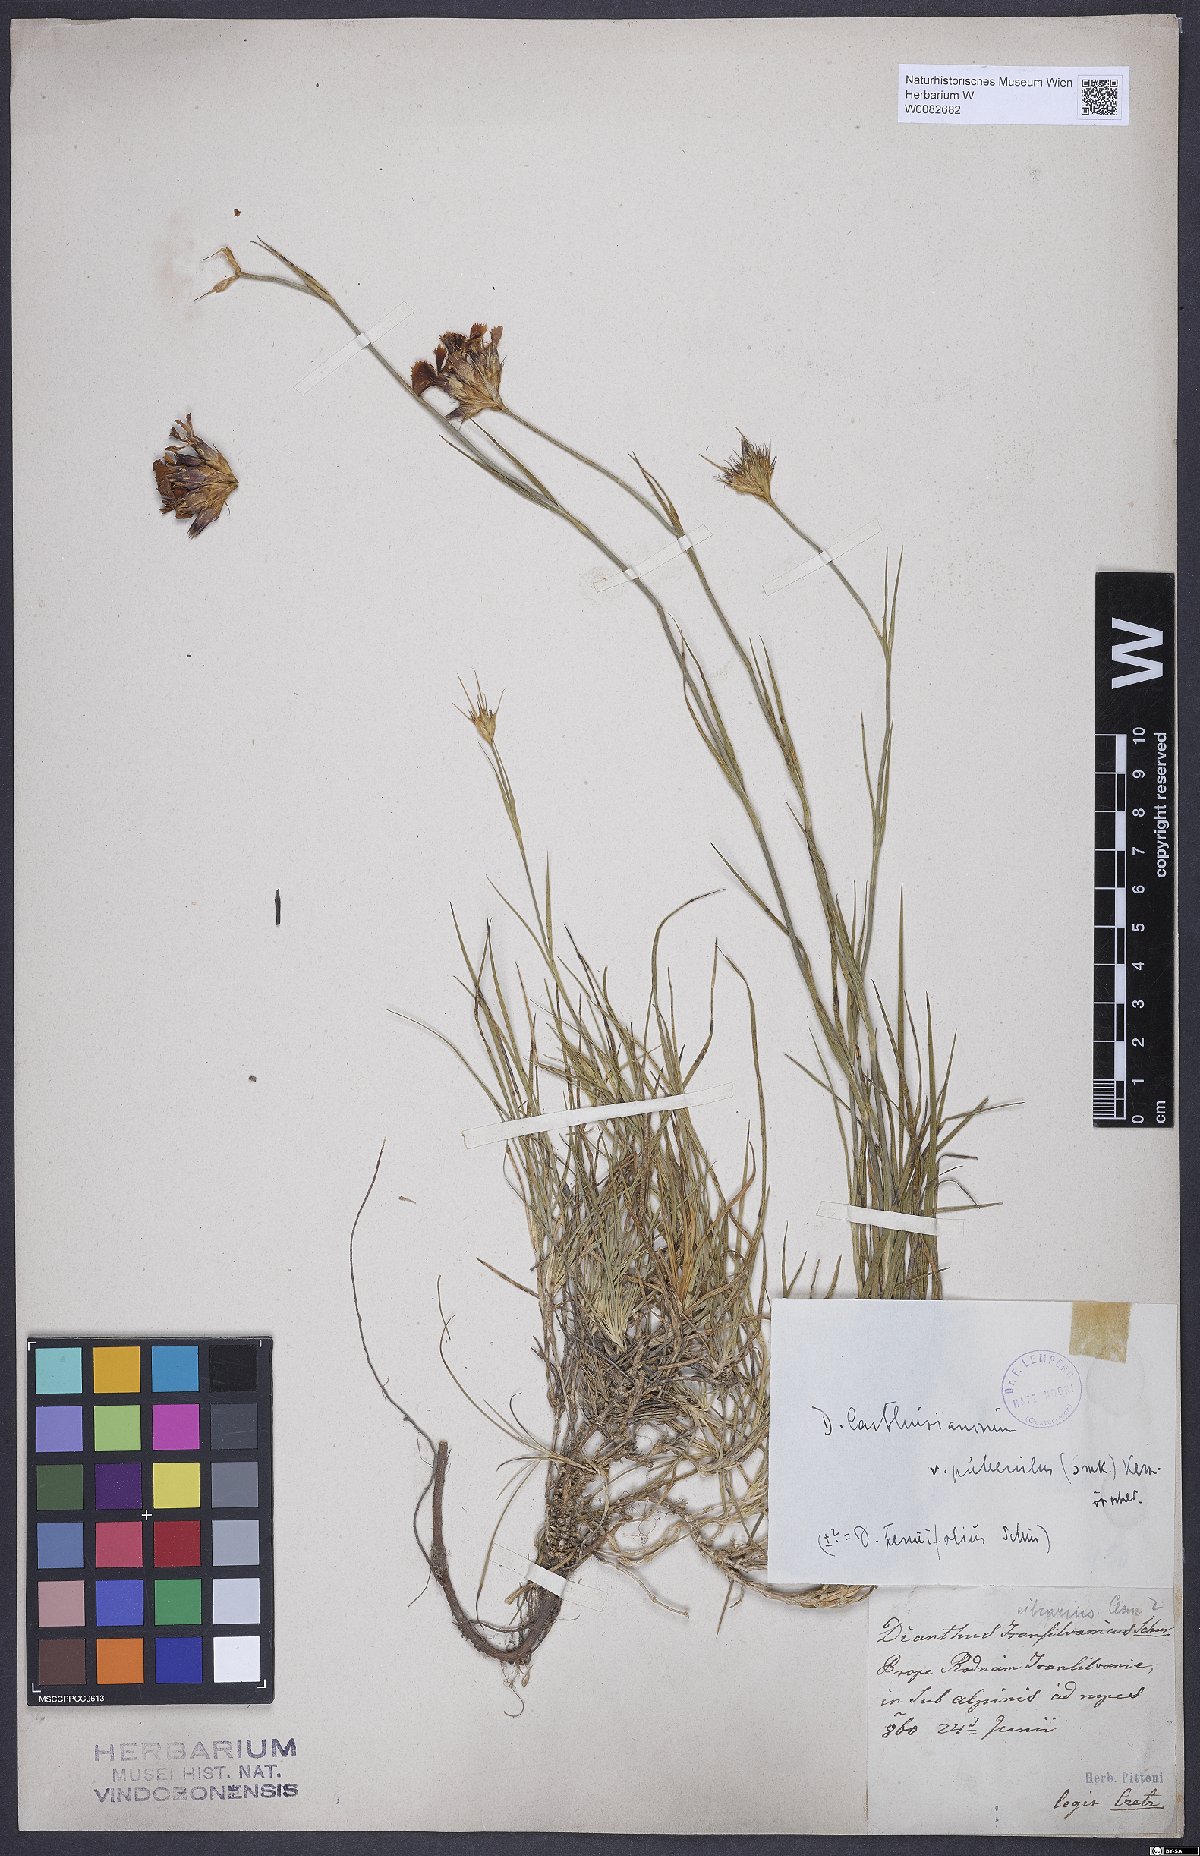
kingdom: Plantae
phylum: Tracheophyta
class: Magnoliopsida
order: Caryophyllales
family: Caryophyllaceae
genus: Dianthus
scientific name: Dianthus carthusianorum
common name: Carthusian pink
